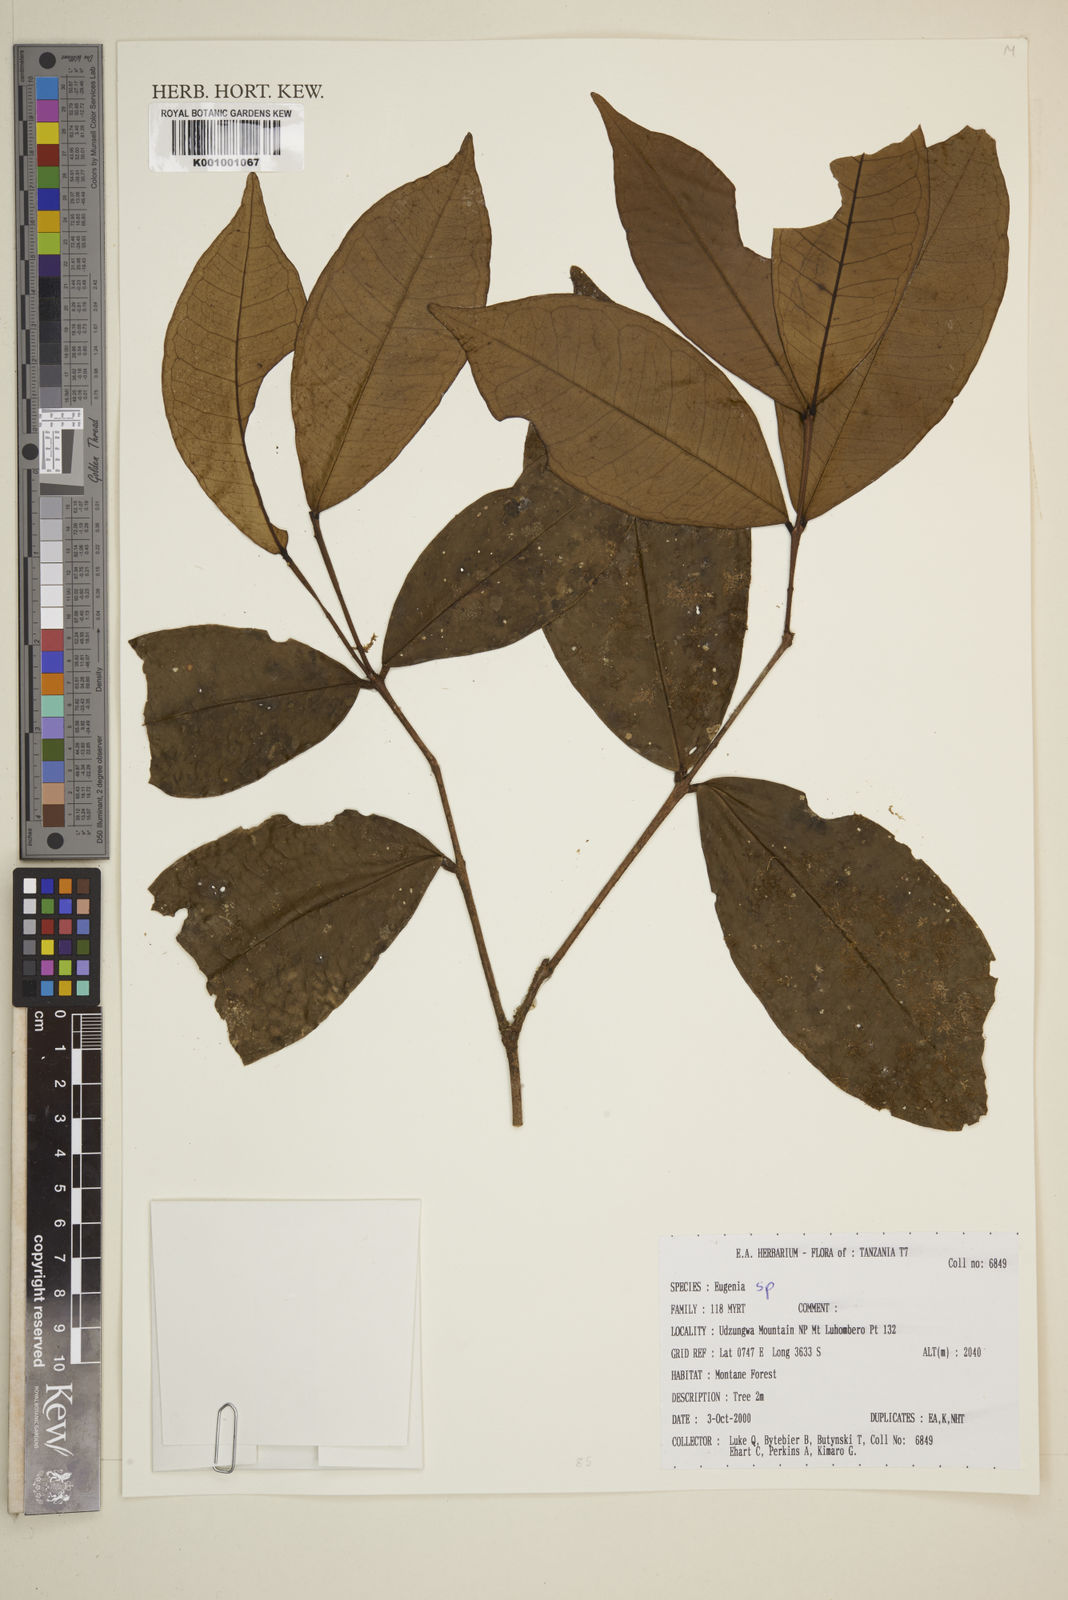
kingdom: Plantae
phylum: Tracheophyta
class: Magnoliopsida
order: Myrtales
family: Myrtaceae
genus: Eugenia
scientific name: Eugenia
